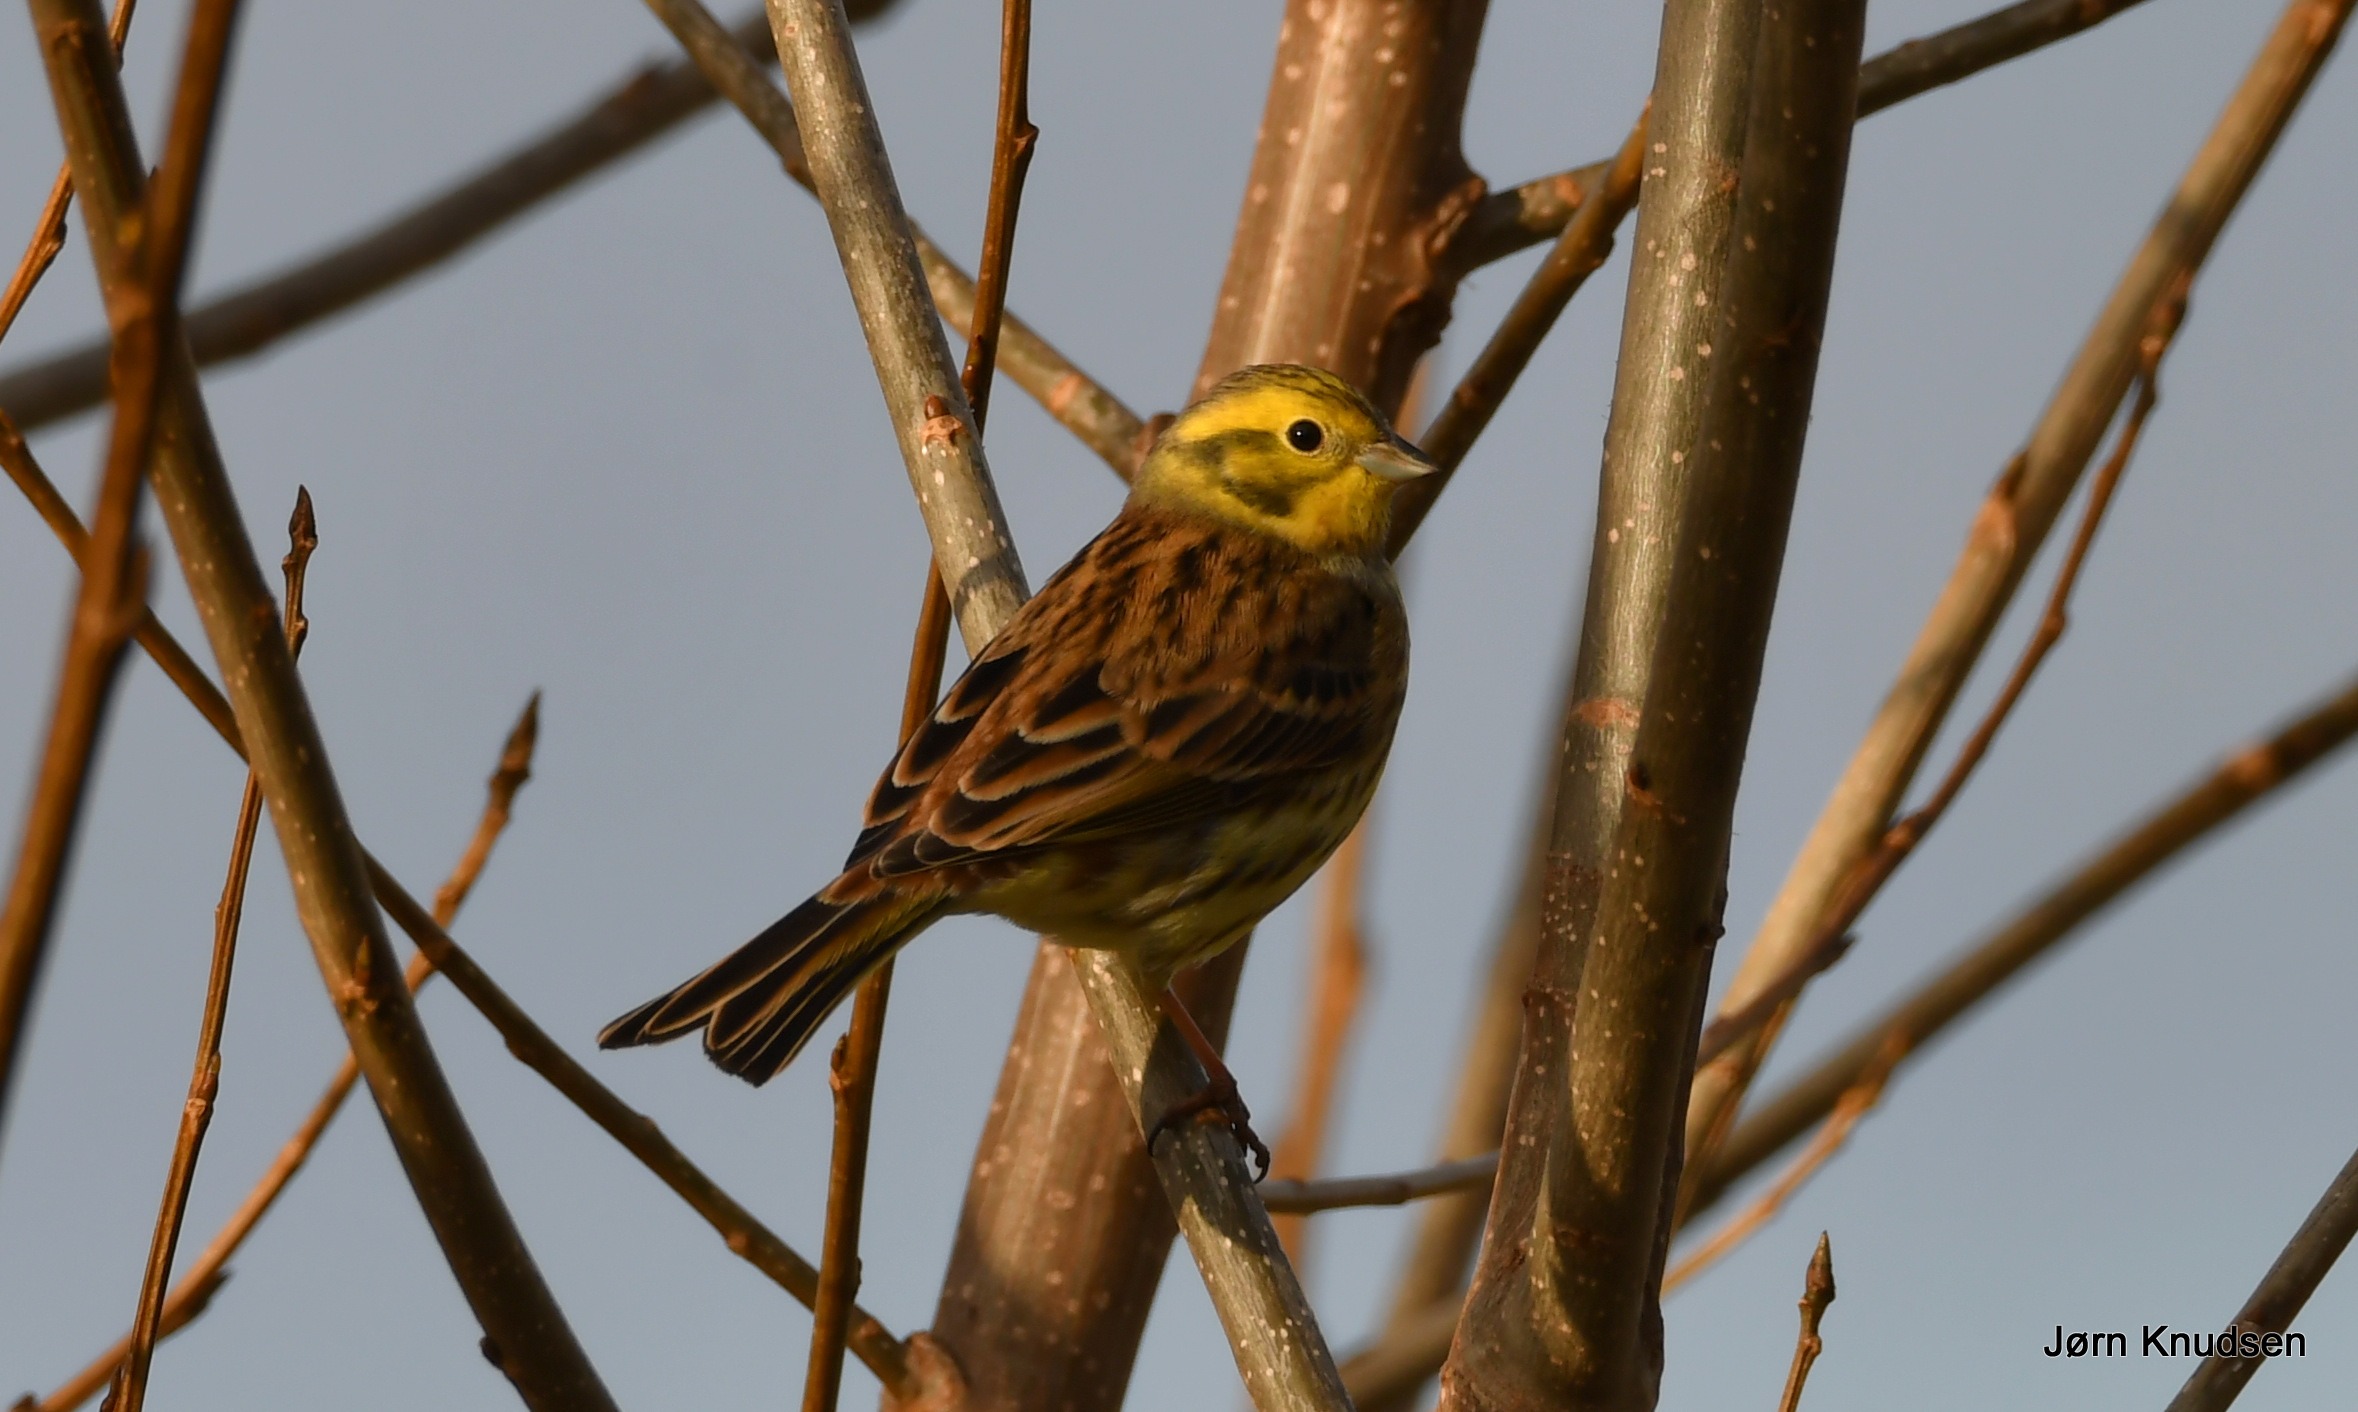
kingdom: Animalia
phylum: Chordata
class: Aves
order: Passeriformes
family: Emberizidae
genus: Emberiza
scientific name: Emberiza citrinella
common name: Gulspurv
